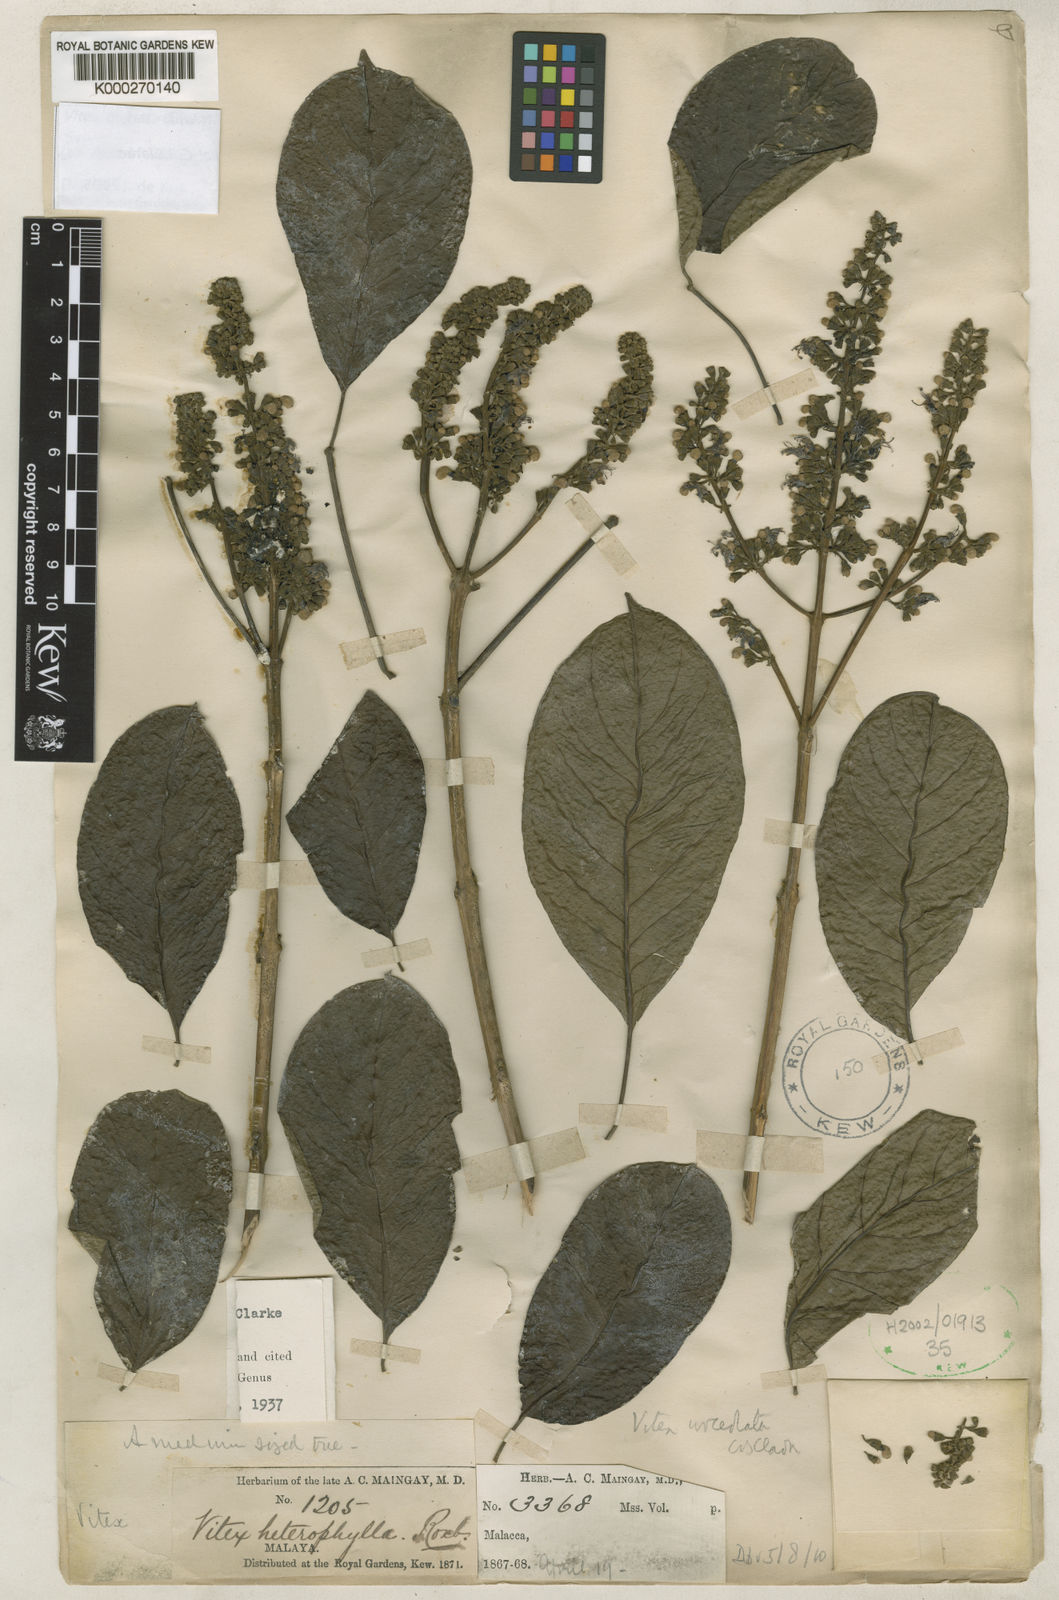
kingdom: Plantae
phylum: Tracheophyta
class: Magnoliopsida
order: Lamiales
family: Lamiaceae
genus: Vitex
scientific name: Vitex quinata
